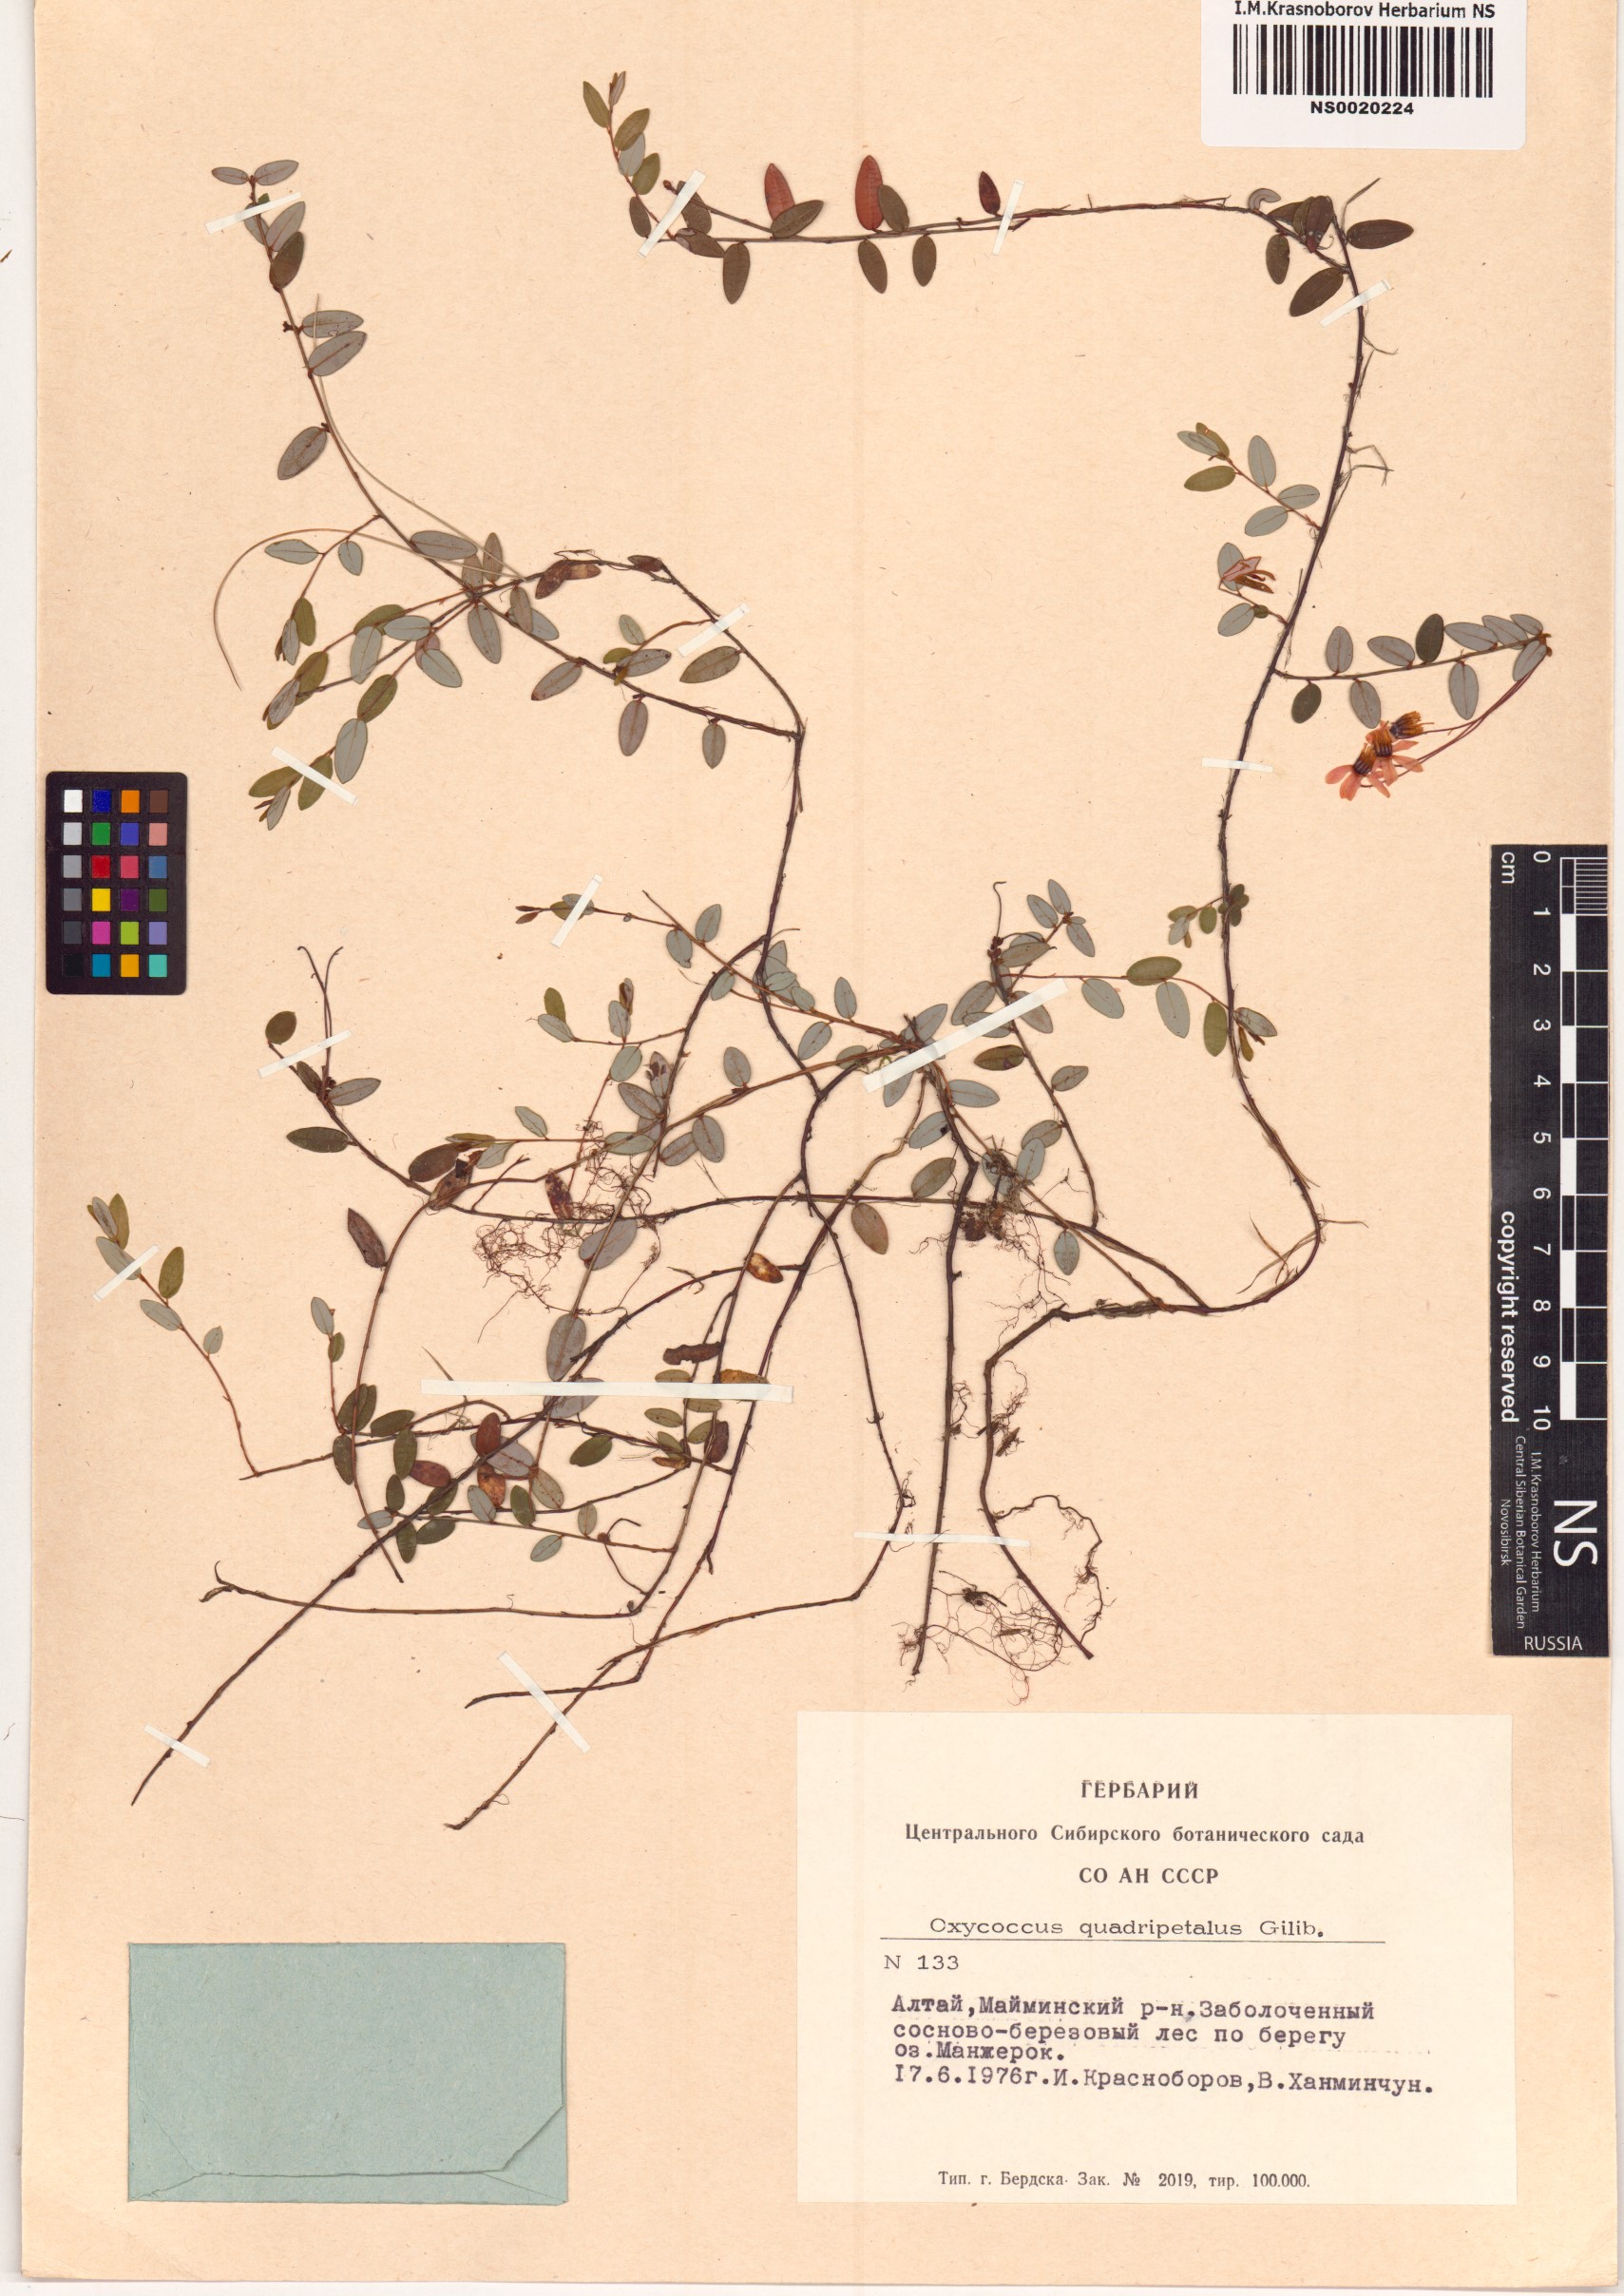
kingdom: Plantae
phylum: Tracheophyta
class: Magnoliopsida
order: Ericales
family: Ericaceae
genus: Vaccinium
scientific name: Vaccinium oxycoccos
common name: Cranberry
